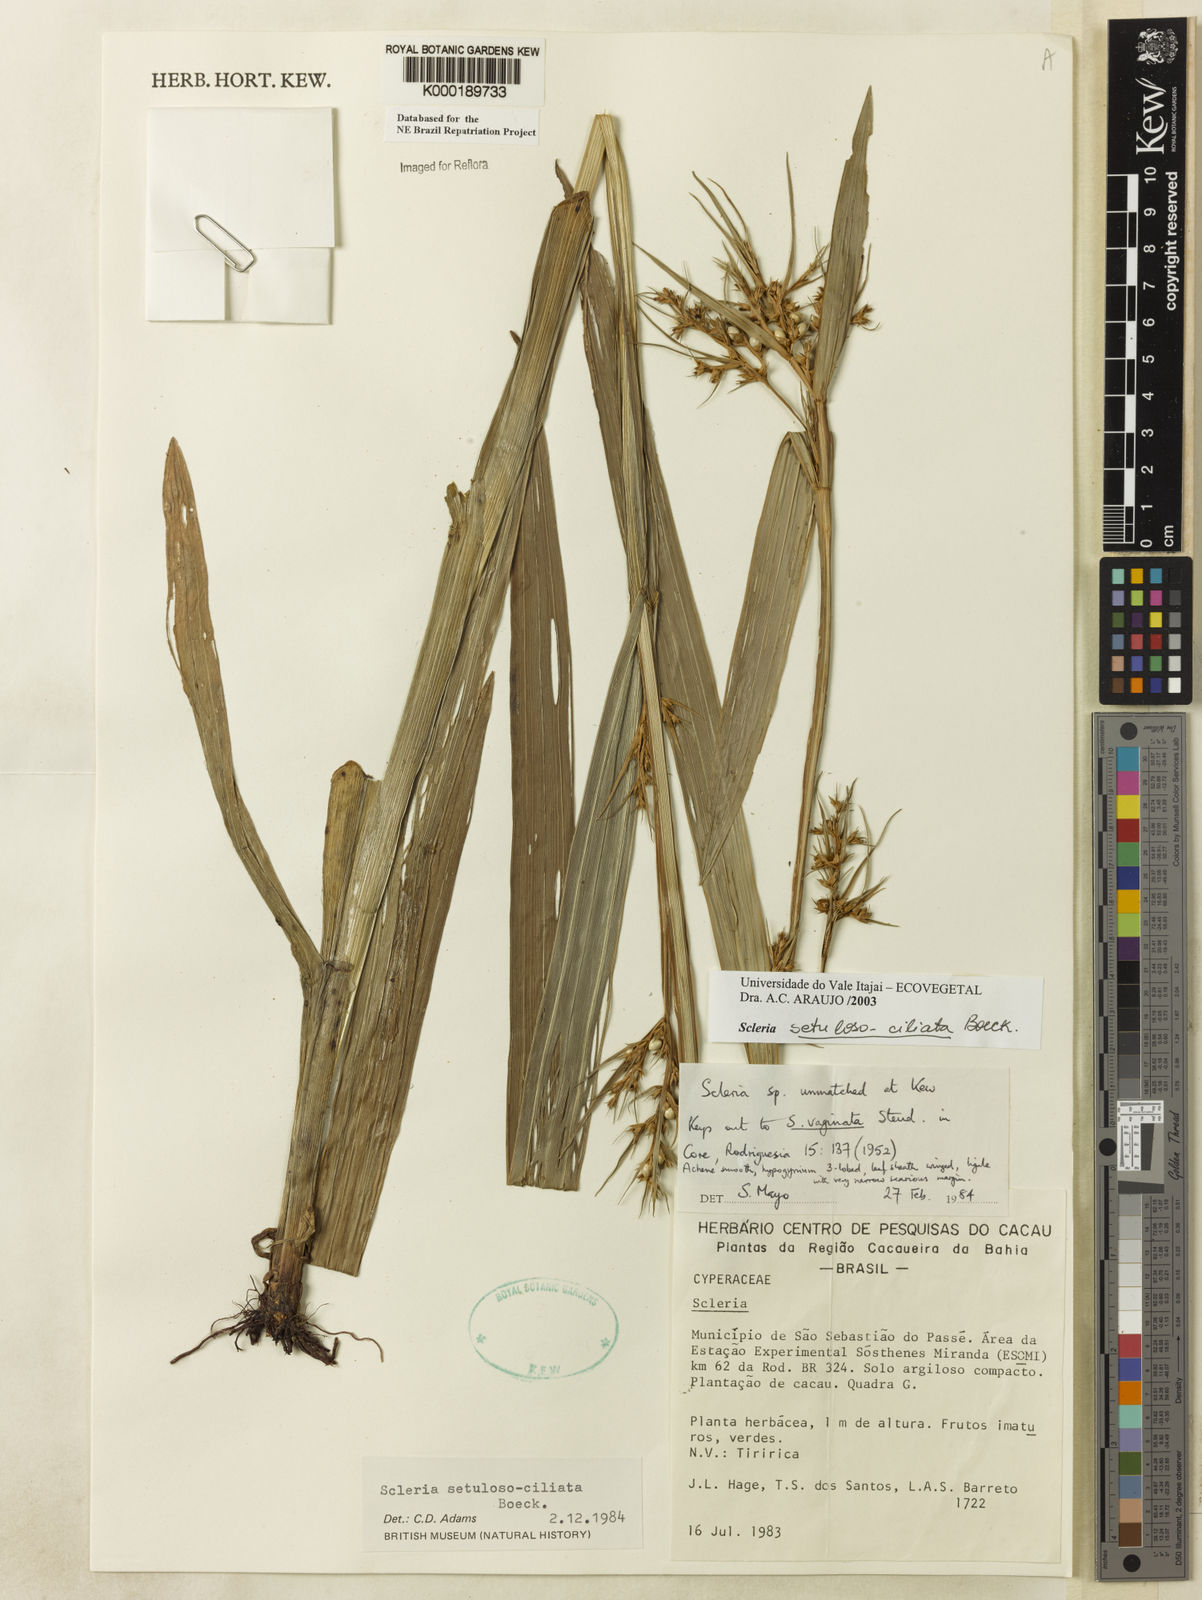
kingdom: Plantae
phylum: Tracheophyta
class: Liliopsida
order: Poales
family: Cyperaceae
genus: Scleria
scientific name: Scleria setulosociliata
